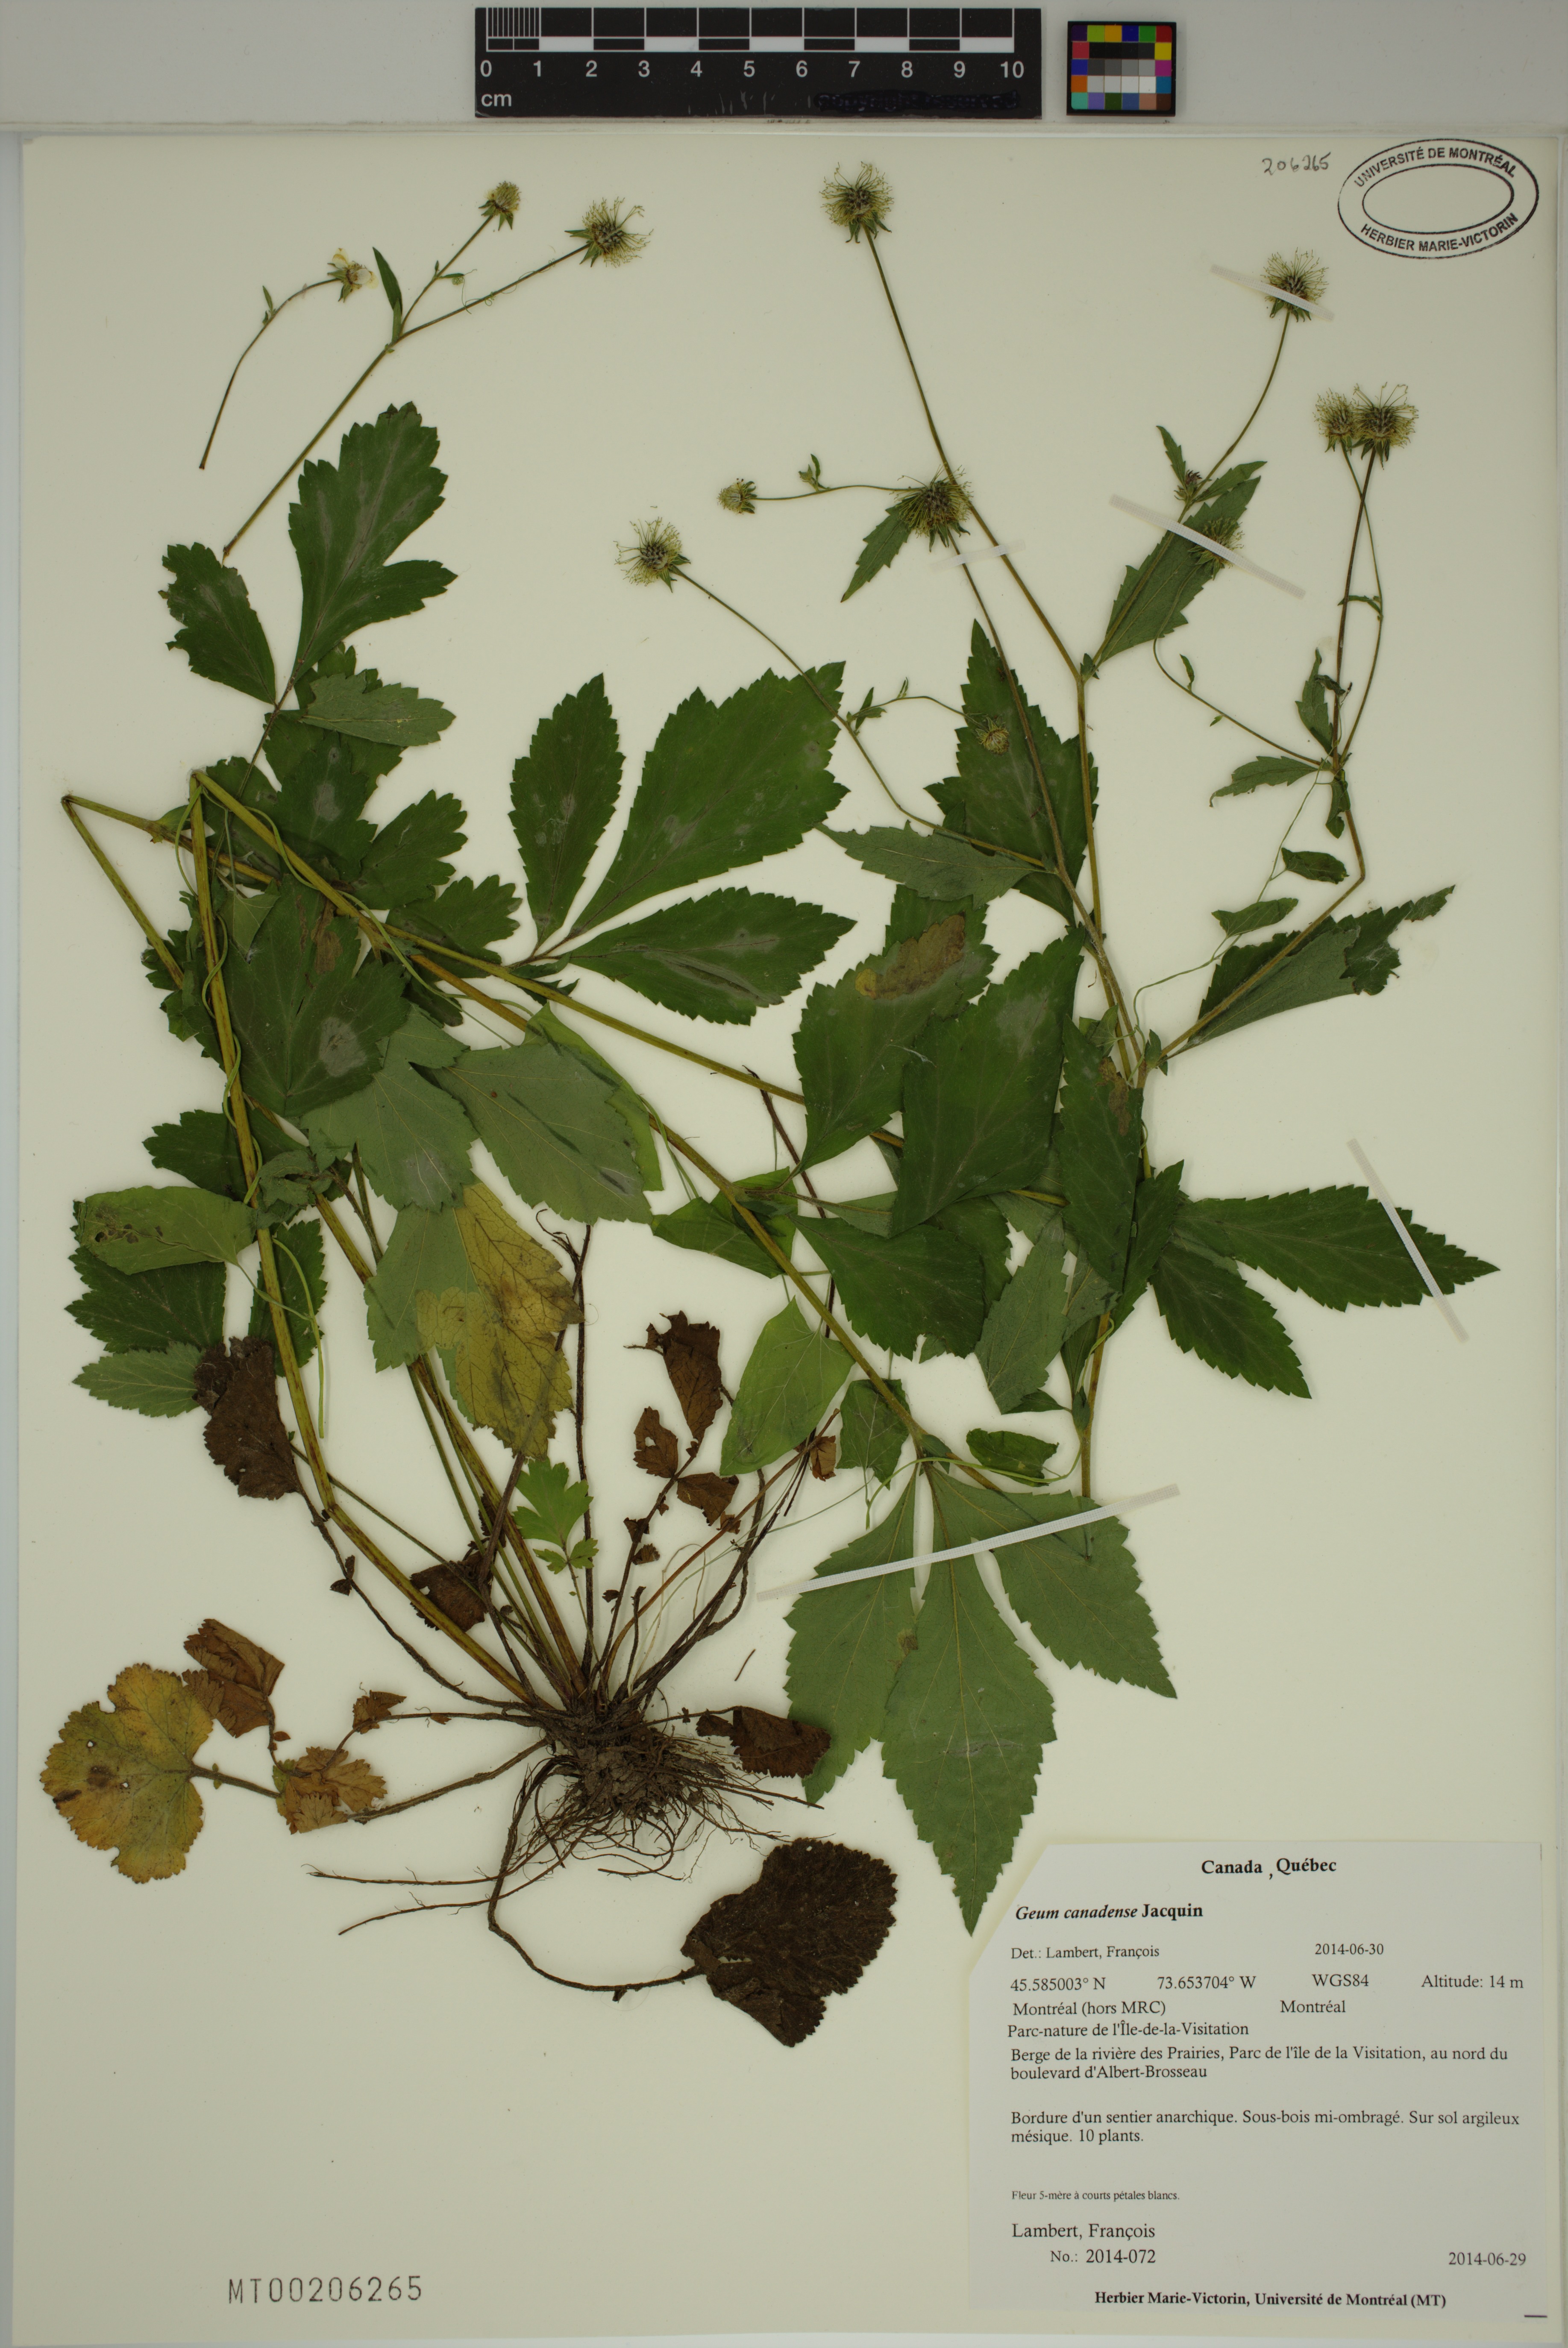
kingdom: Plantae
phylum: Tracheophyta
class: Magnoliopsida
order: Rosales
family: Rosaceae
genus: Geum
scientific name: Geum canadense
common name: White avens
